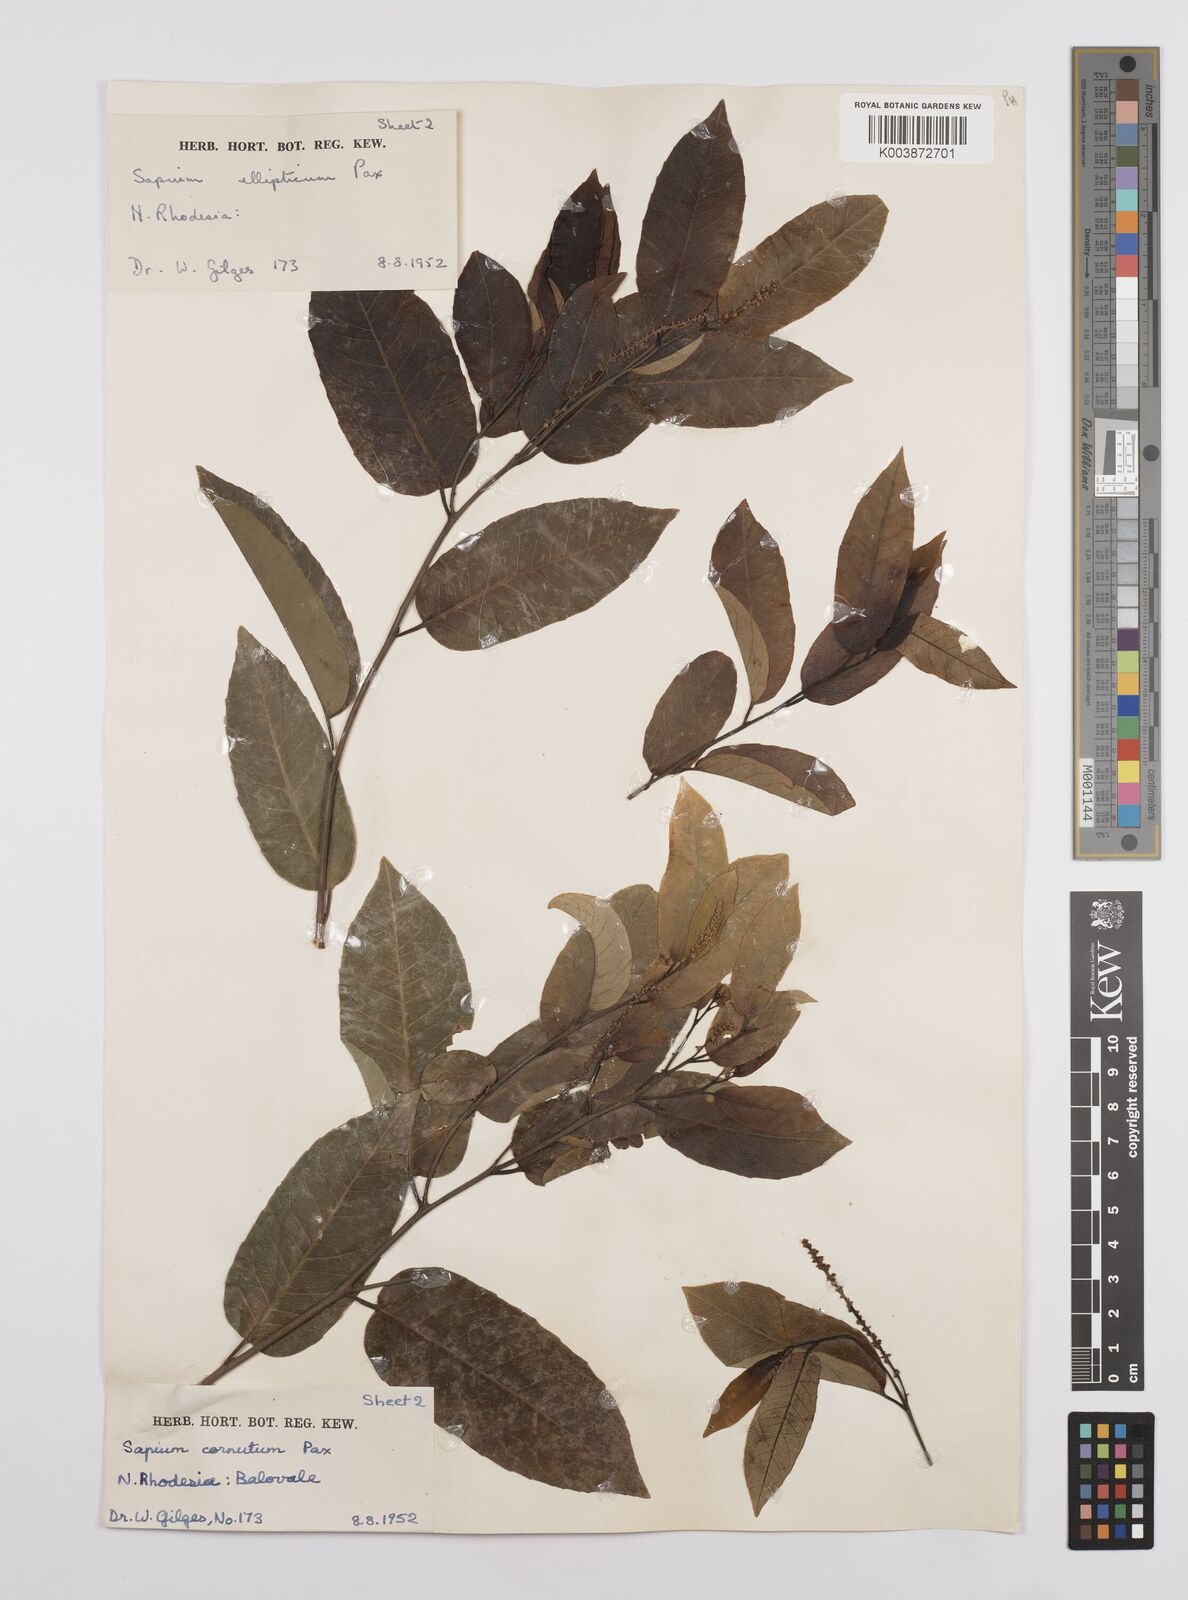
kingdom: Plantae
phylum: Tracheophyta
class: Magnoliopsida
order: Malpighiales
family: Euphorbiaceae
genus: Sclerocroton
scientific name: Sclerocroton cornutus
